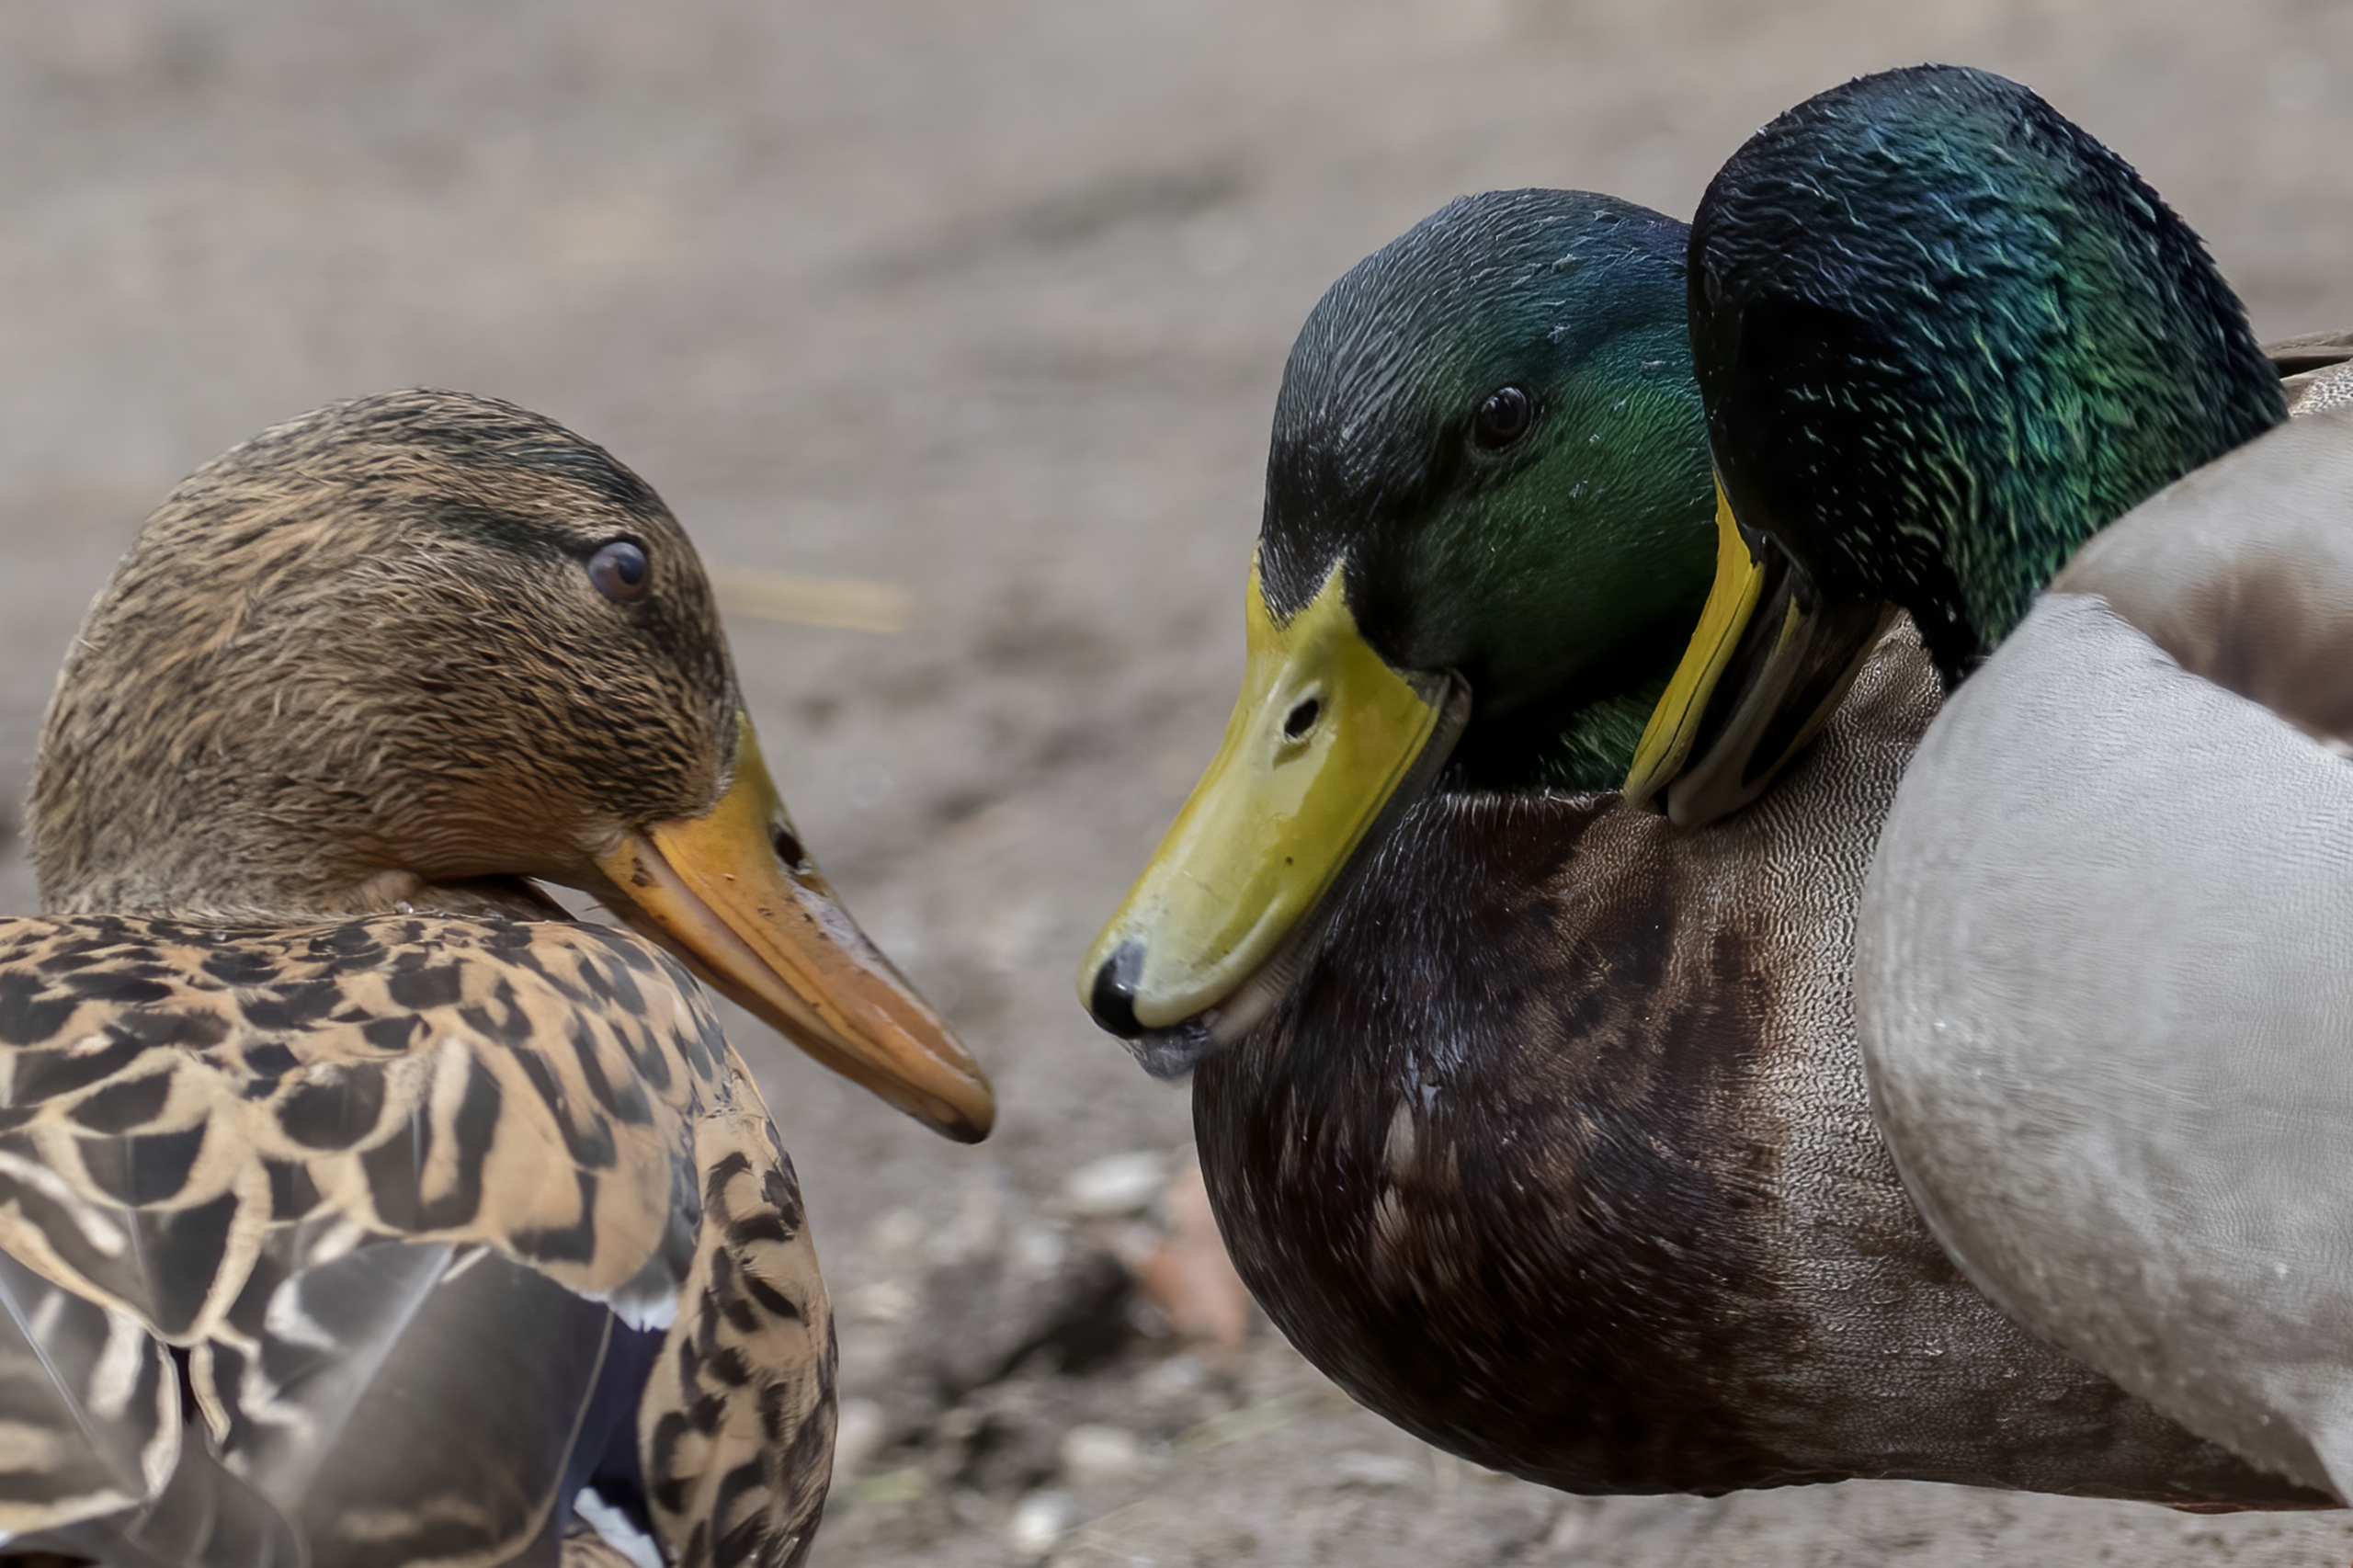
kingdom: Animalia
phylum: Chordata
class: Aves
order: Anseriformes
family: Anatidae
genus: Anas
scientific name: Anas platyrhynchos
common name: Gråand
